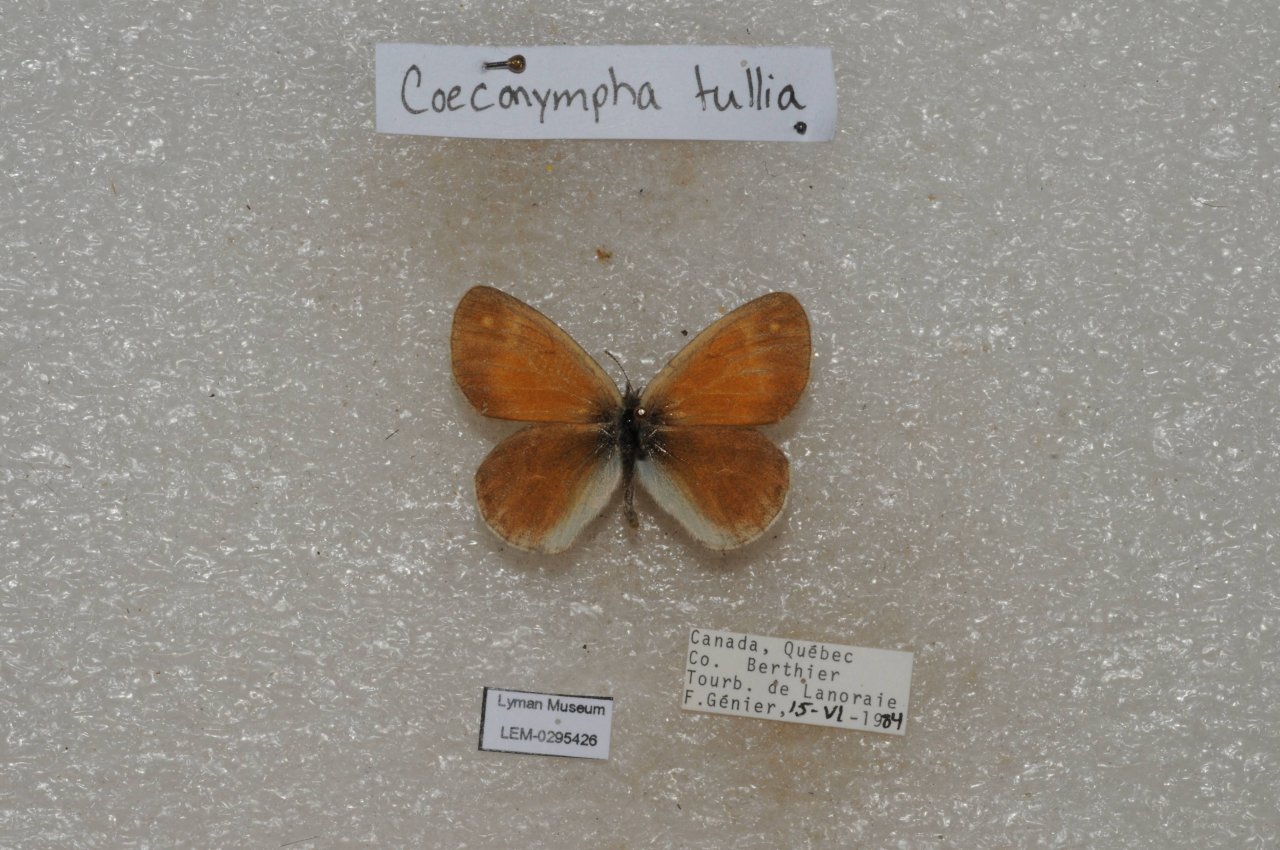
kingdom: Animalia
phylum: Arthropoda
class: Insecta
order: Lepidoptera
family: Nymphalidae
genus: Coenonympha
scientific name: Coenonympha tullia
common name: Large Heath
